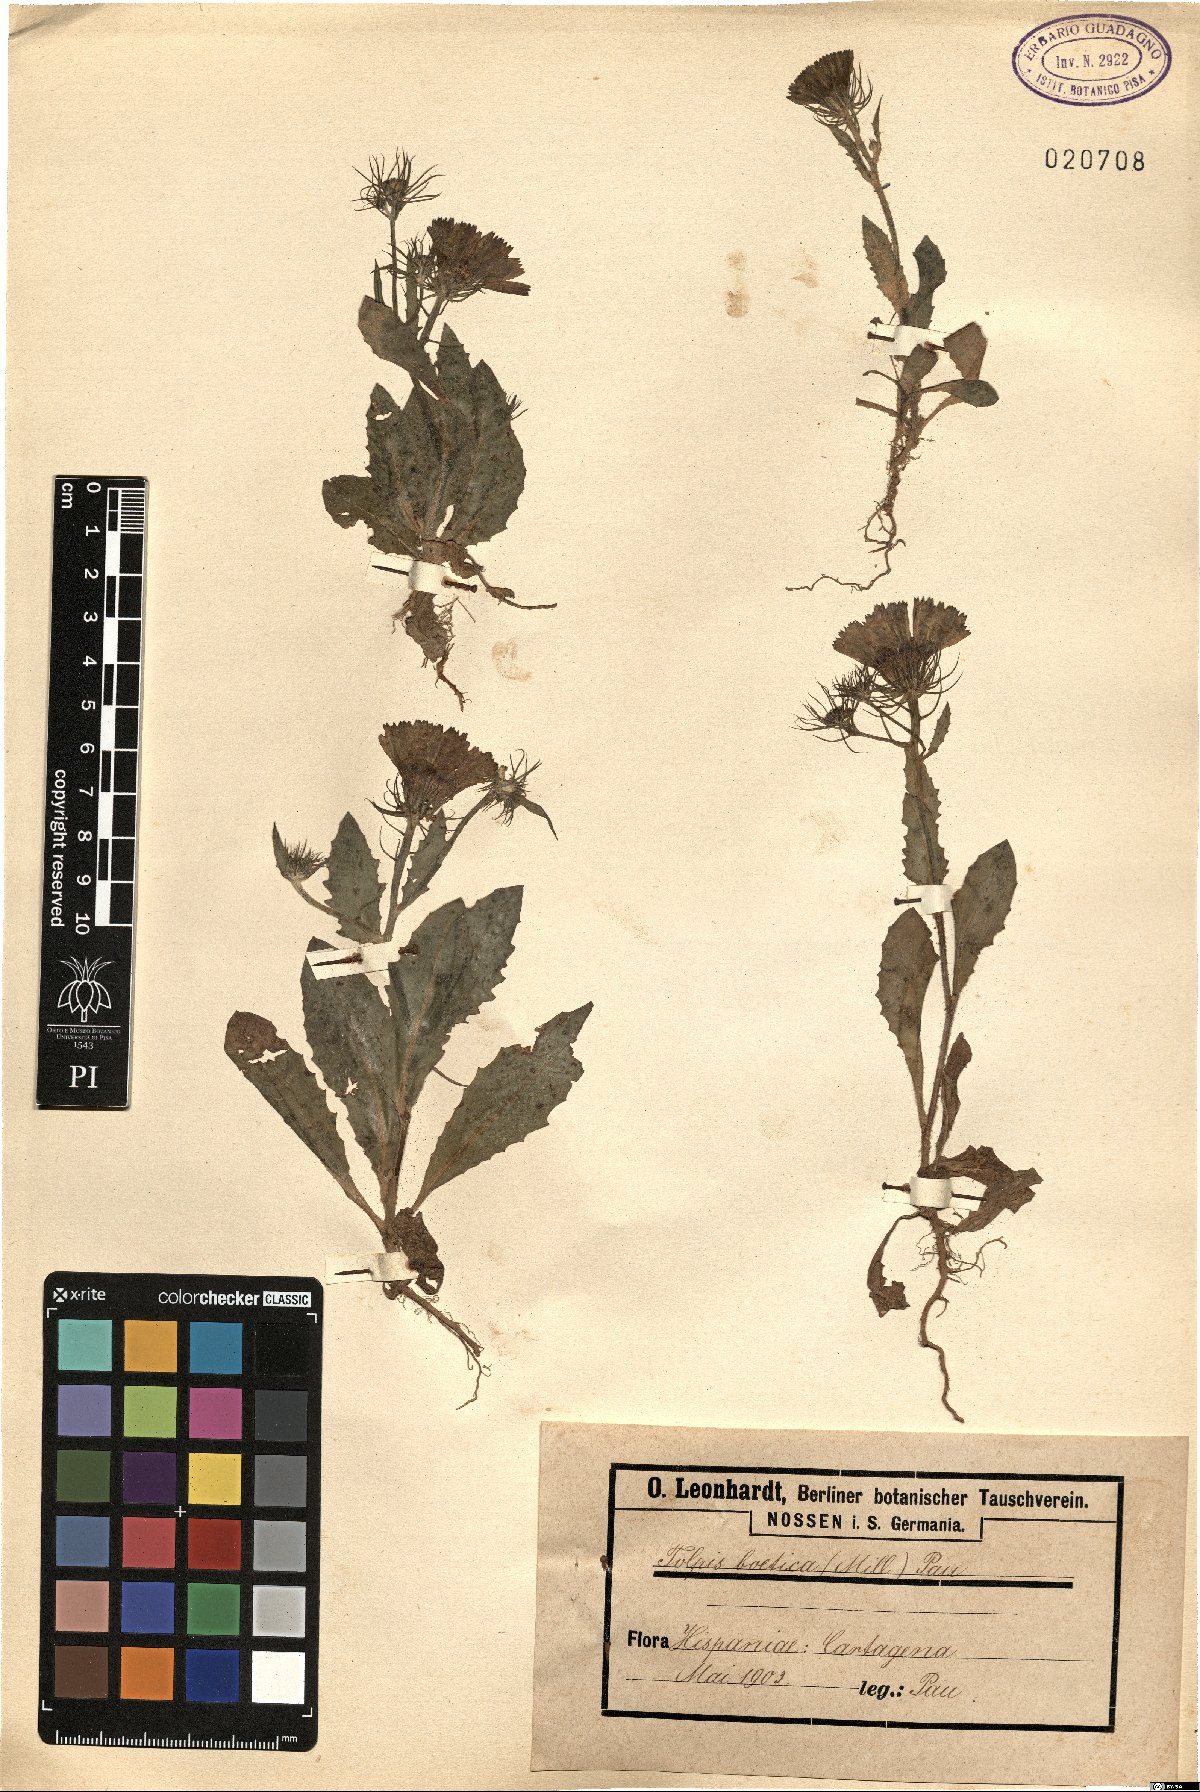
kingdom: Plantae
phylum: Tracheophyta
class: Magnoliopsida
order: Asterales
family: Asteraceae
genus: Tolpis
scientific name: Tolpis barbata
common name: Yellow hawkweed
